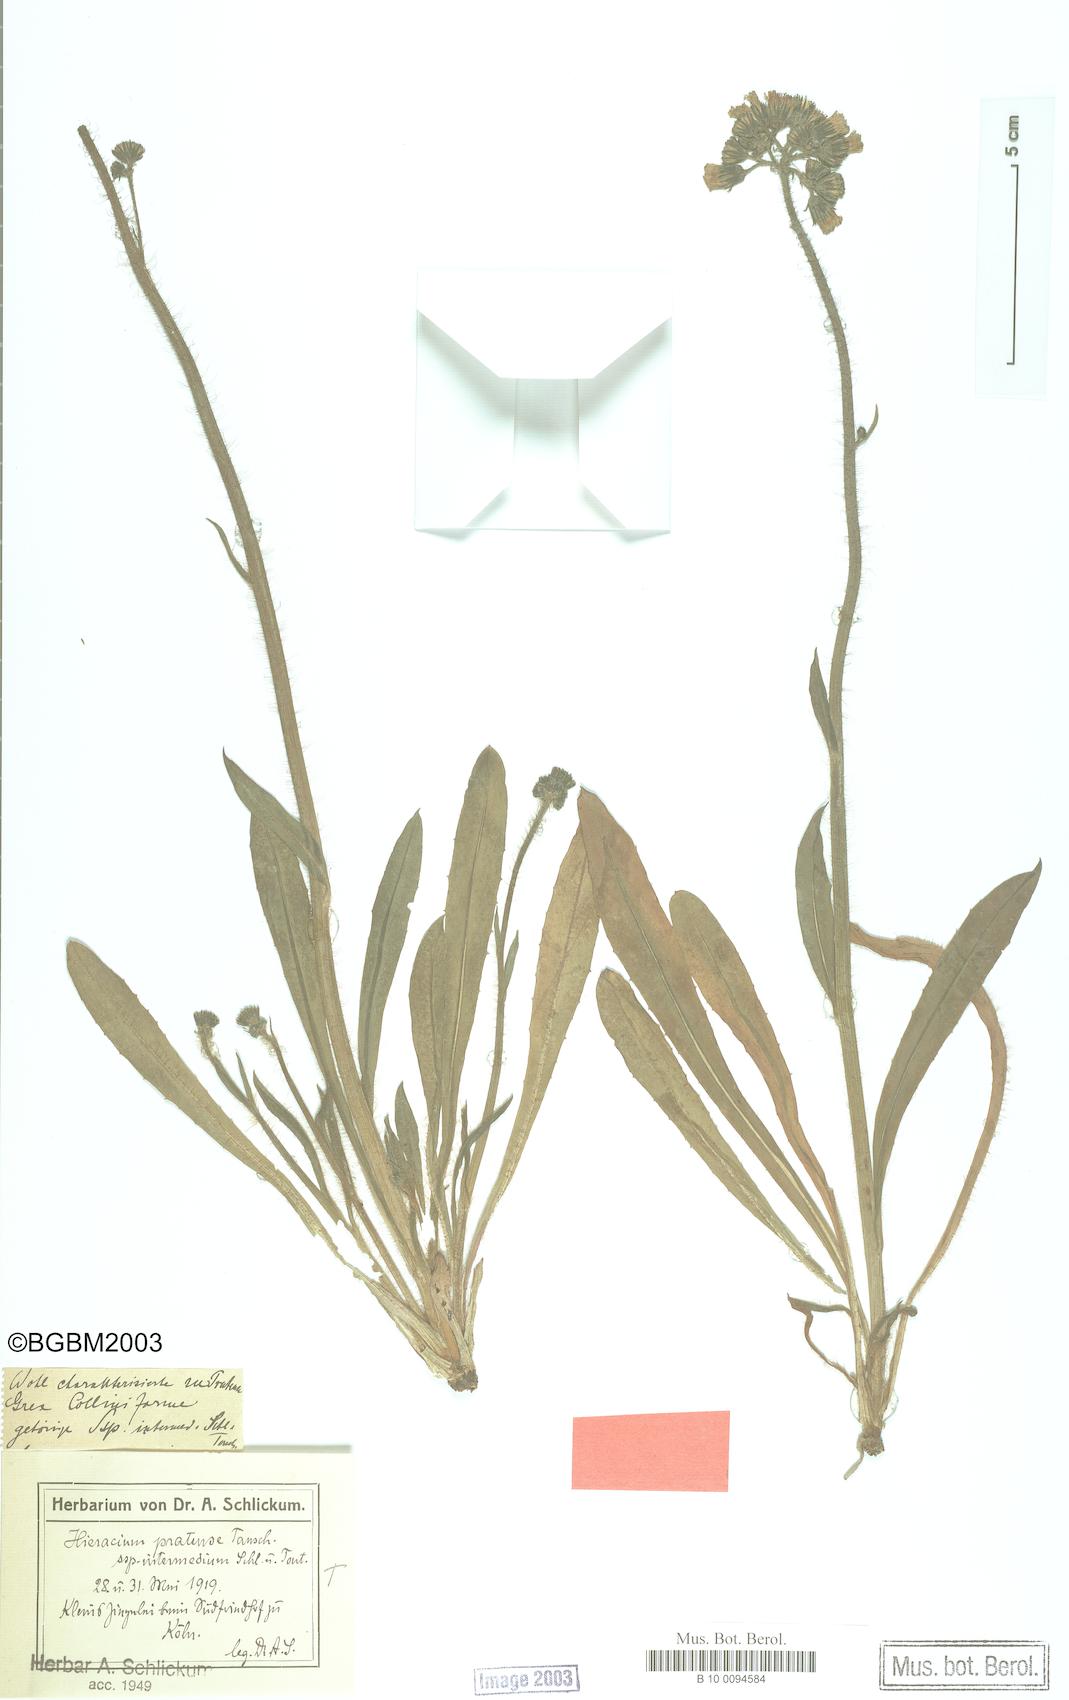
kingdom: Plantae
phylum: Tracheophyta
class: Magnoliopsida
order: Asterales
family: Asteraceae
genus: Pilosella
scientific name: Pilosella caespitosa
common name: Yellow fox-and-cubs
